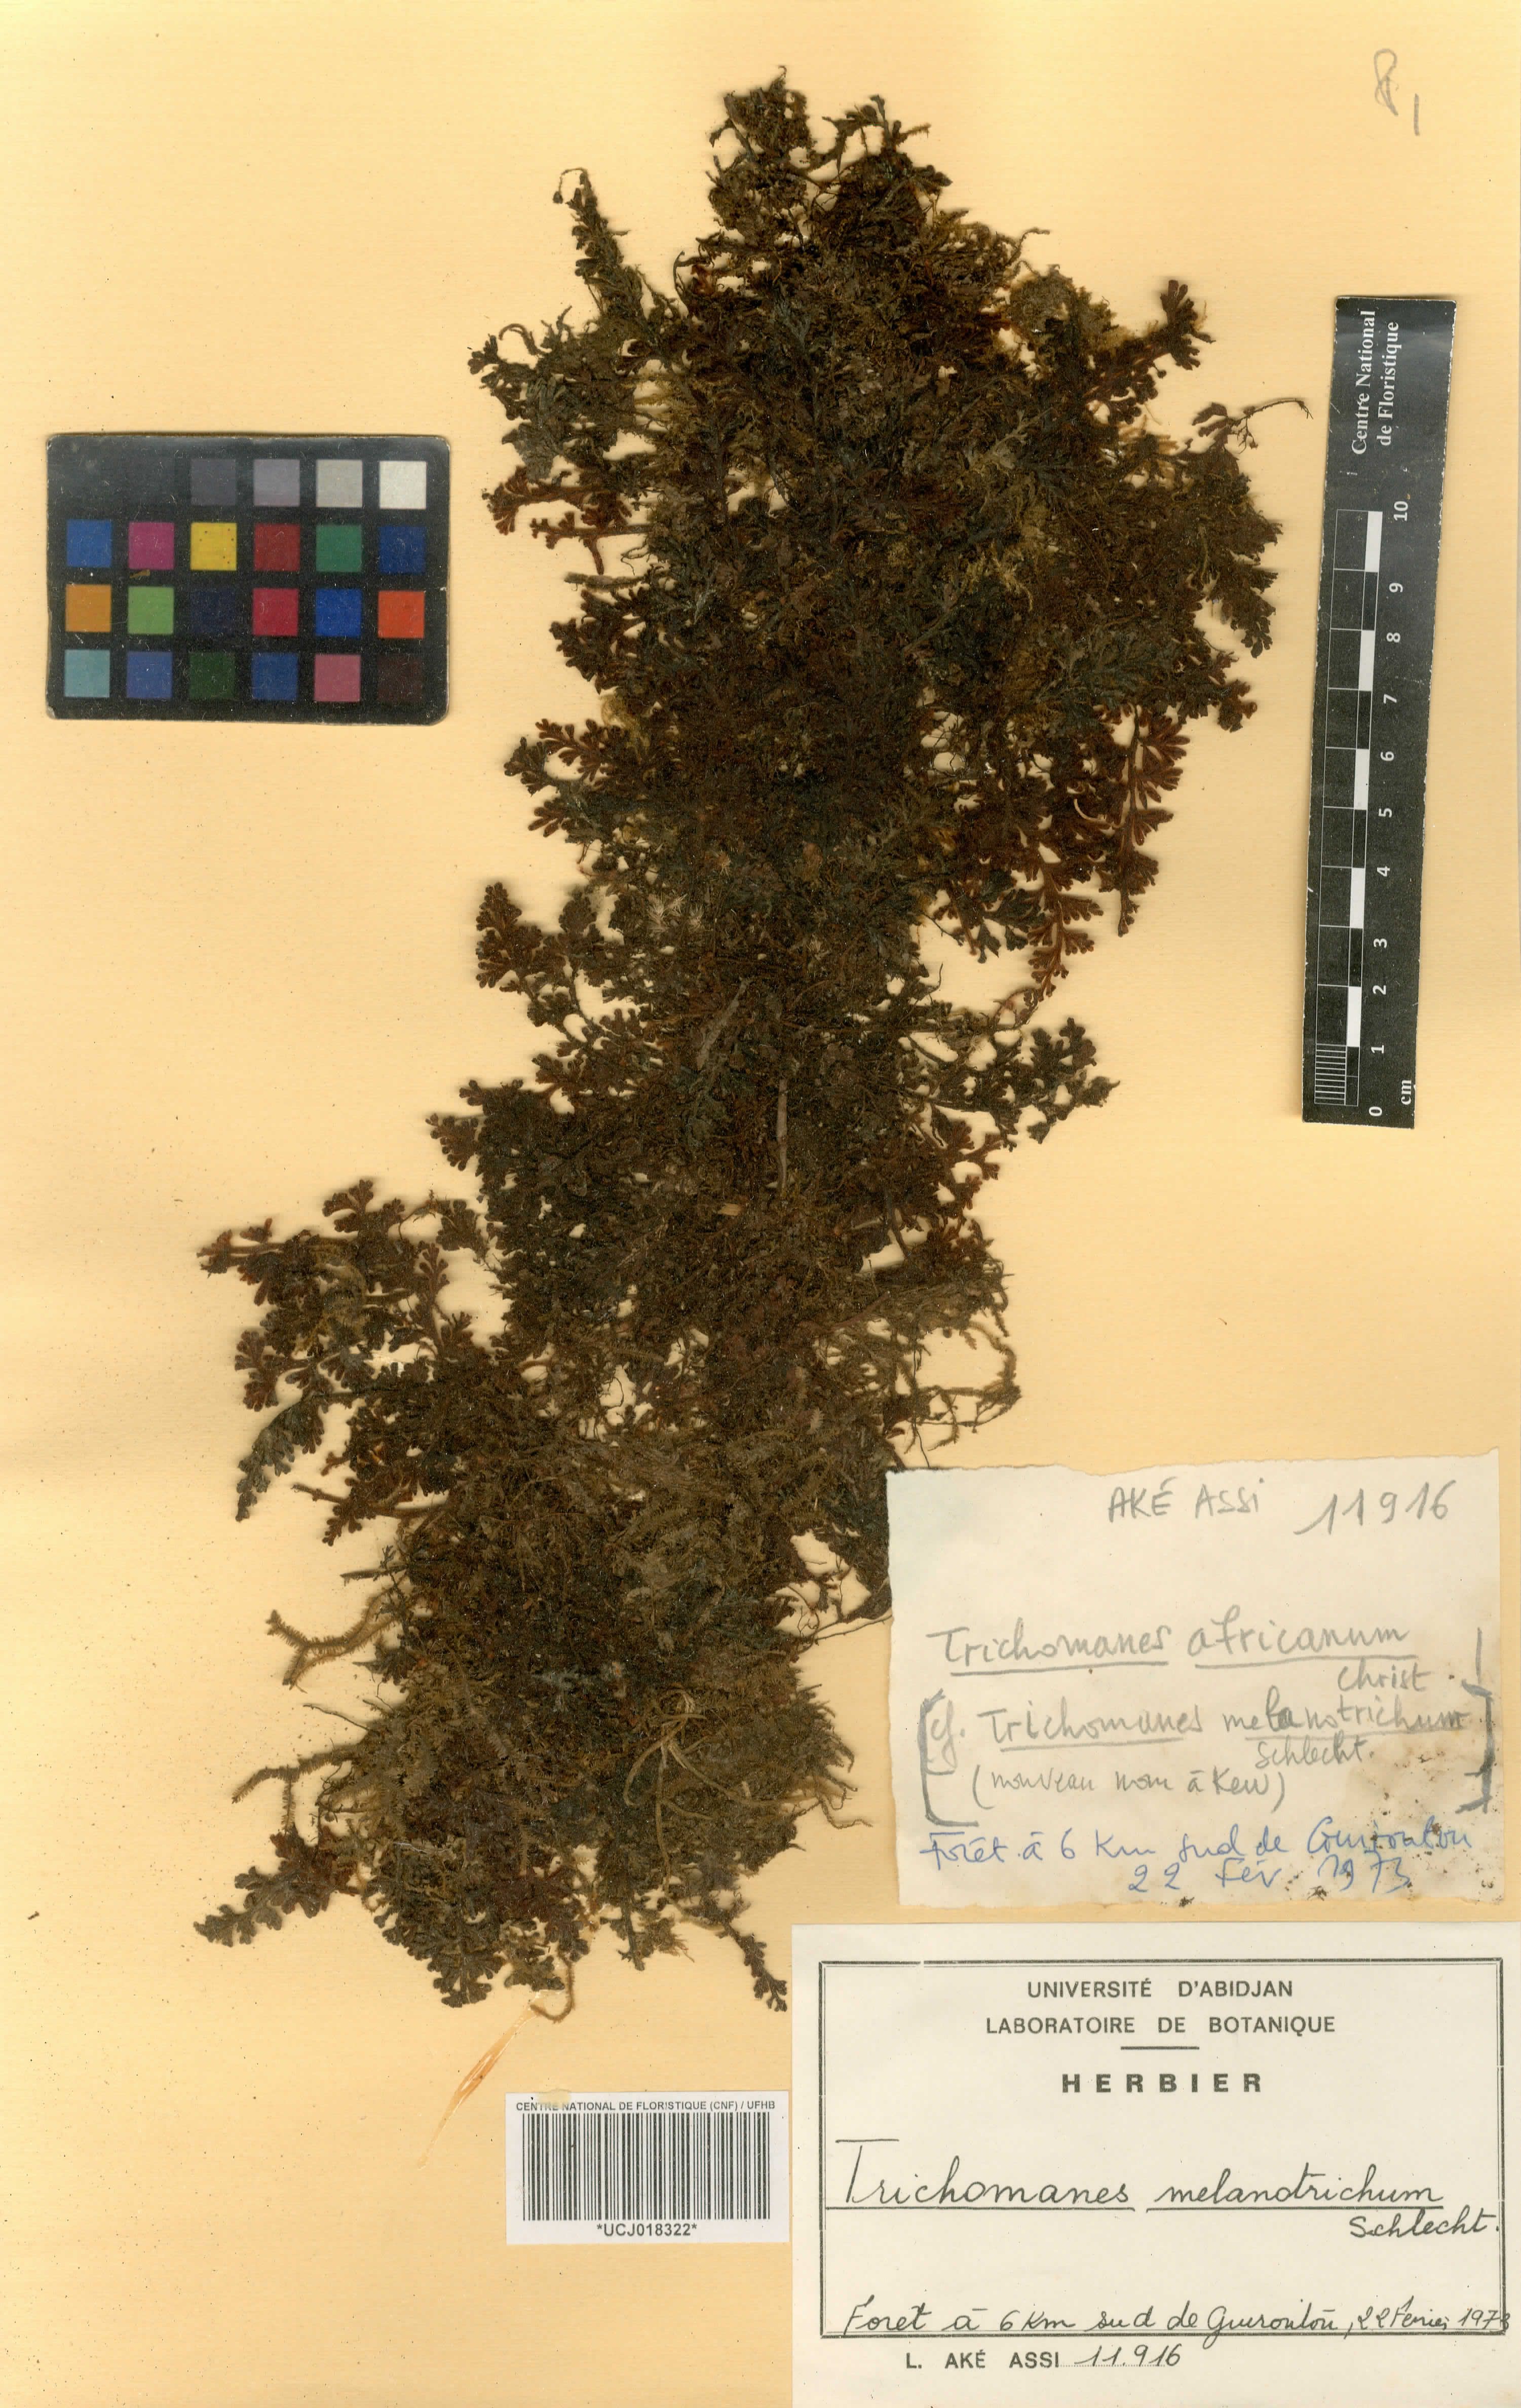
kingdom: Plantae
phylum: Tracheophyta
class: Polypodiopsida
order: Hymenophyllales
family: Hymenophyllaceae
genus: Crepidomanes
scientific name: Crepidomanes melanotrichum
